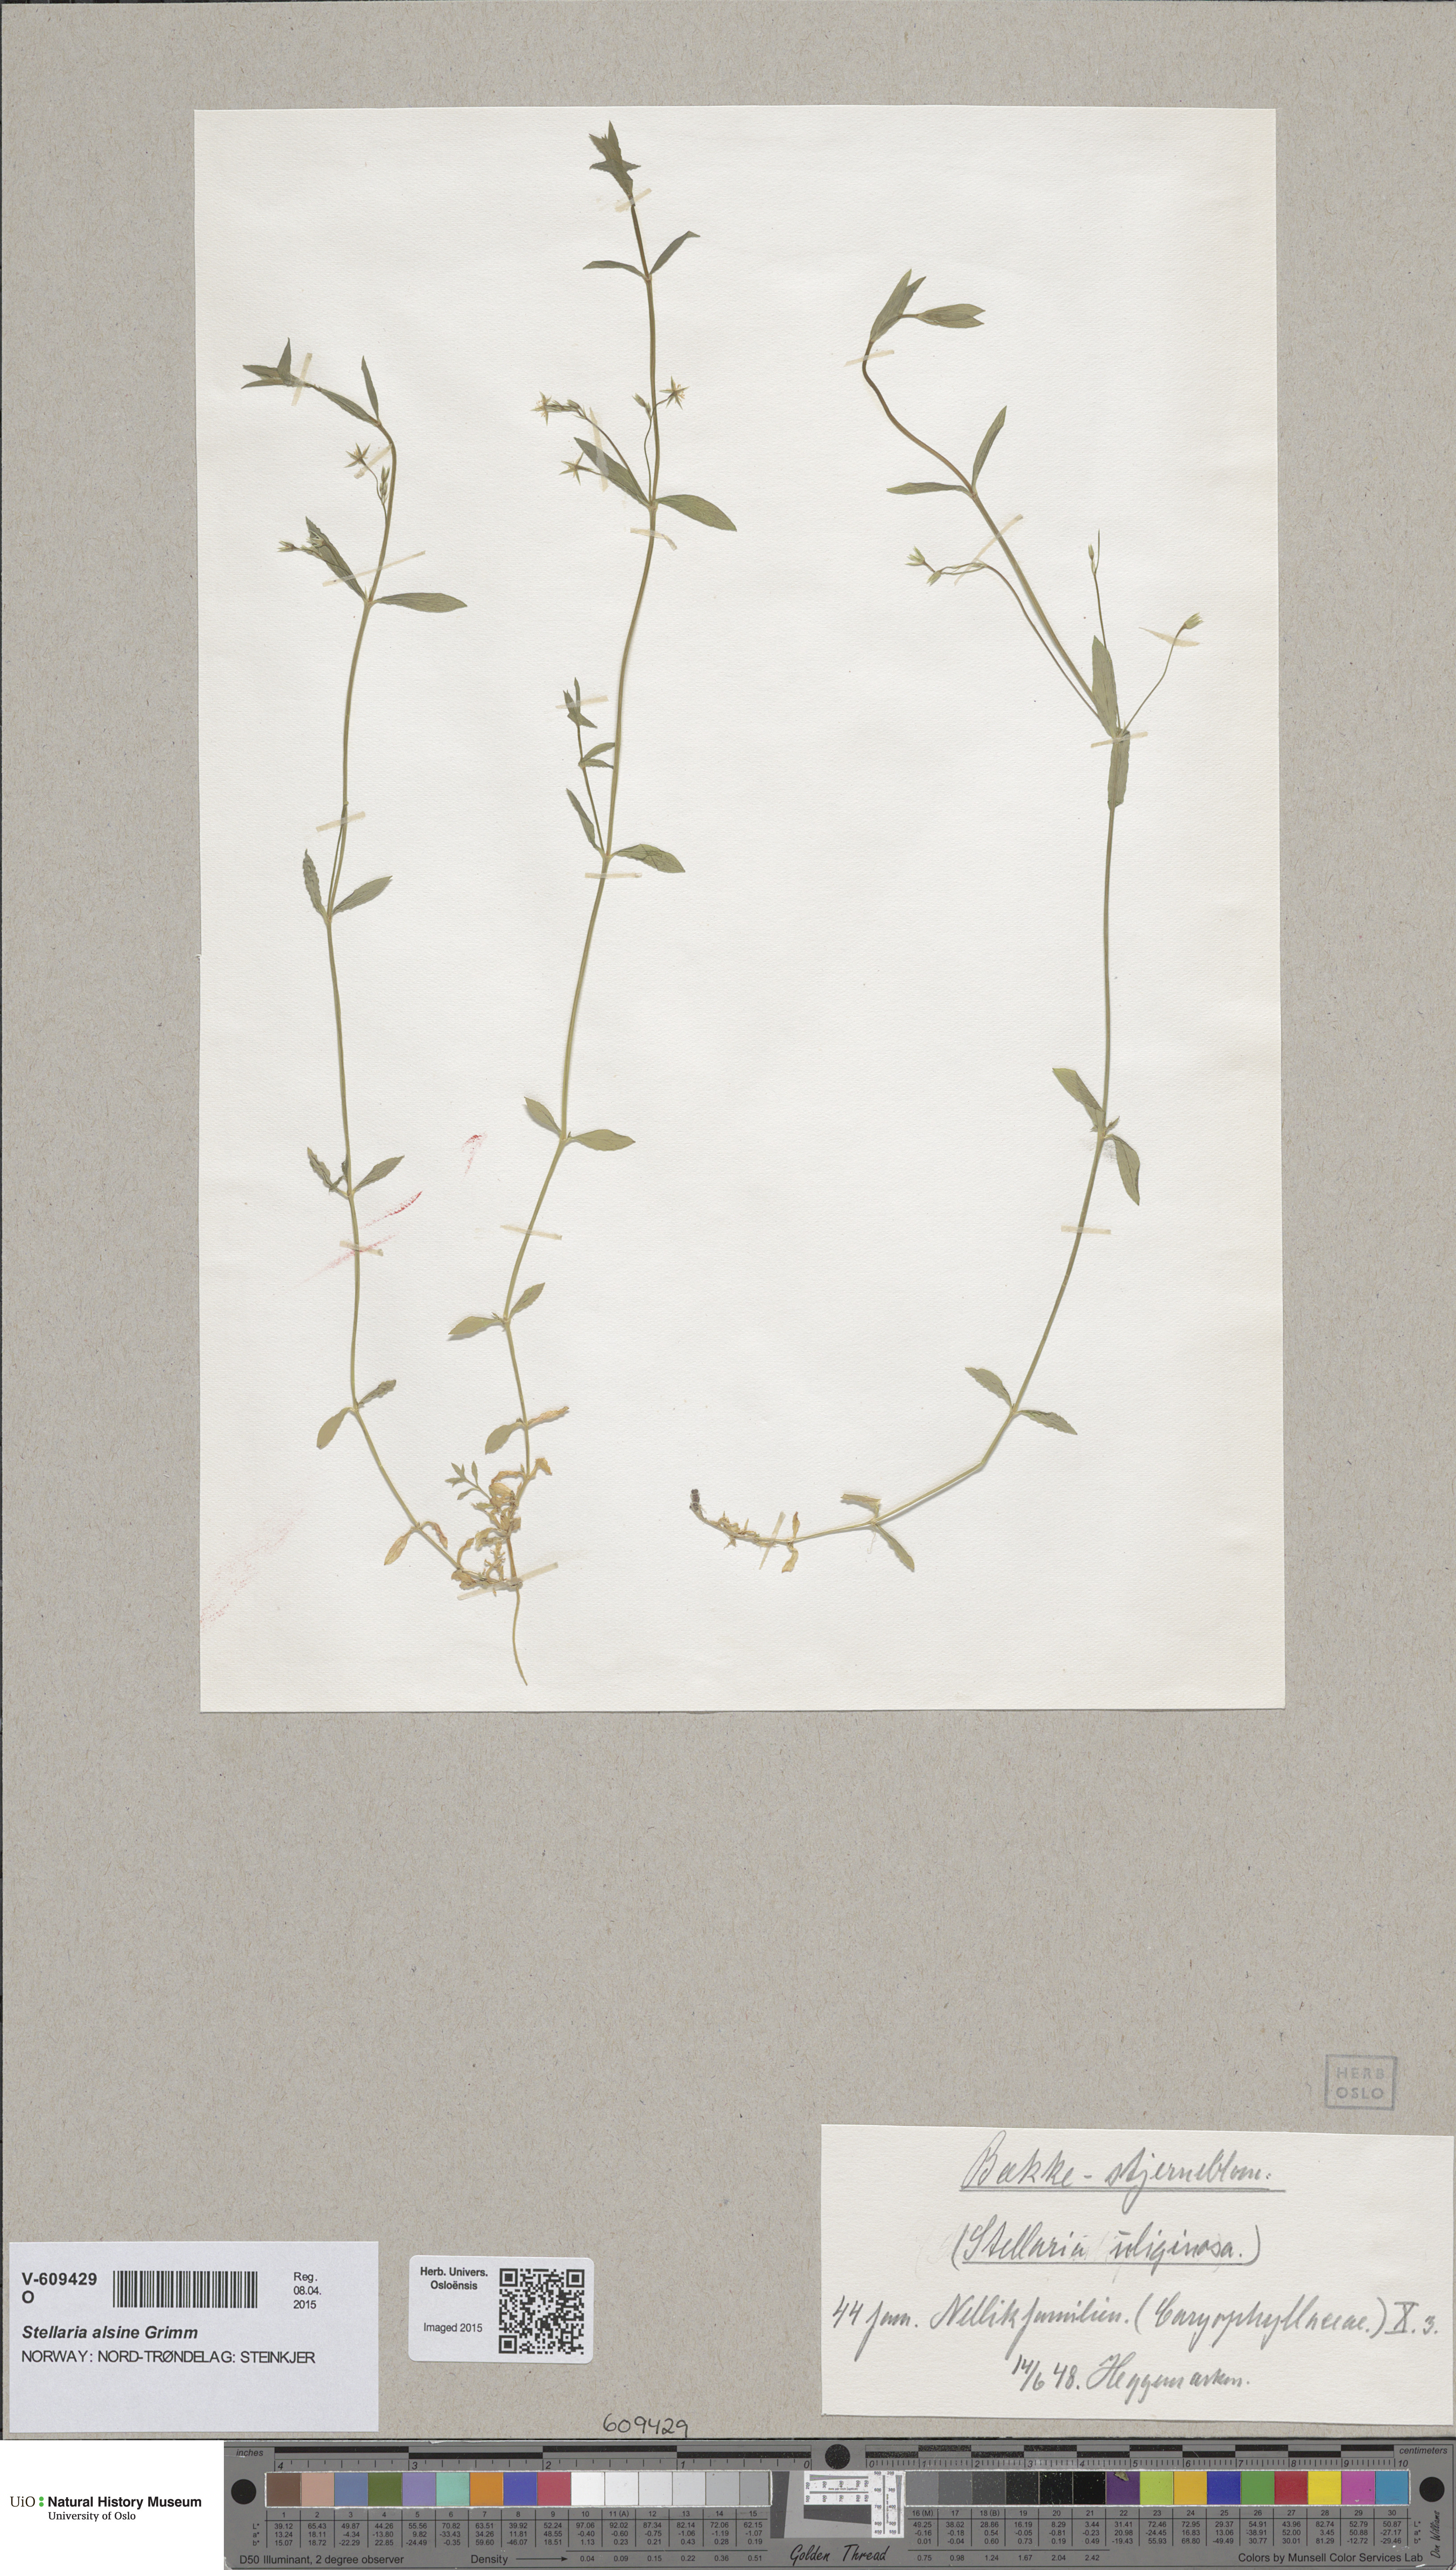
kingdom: Plantae
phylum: Tracheophyta
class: Magnoliopsida
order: Caryophyllales
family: Caryophyllaceae
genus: Stellaria
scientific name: Stellaria alsine
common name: Bog stitchwort
